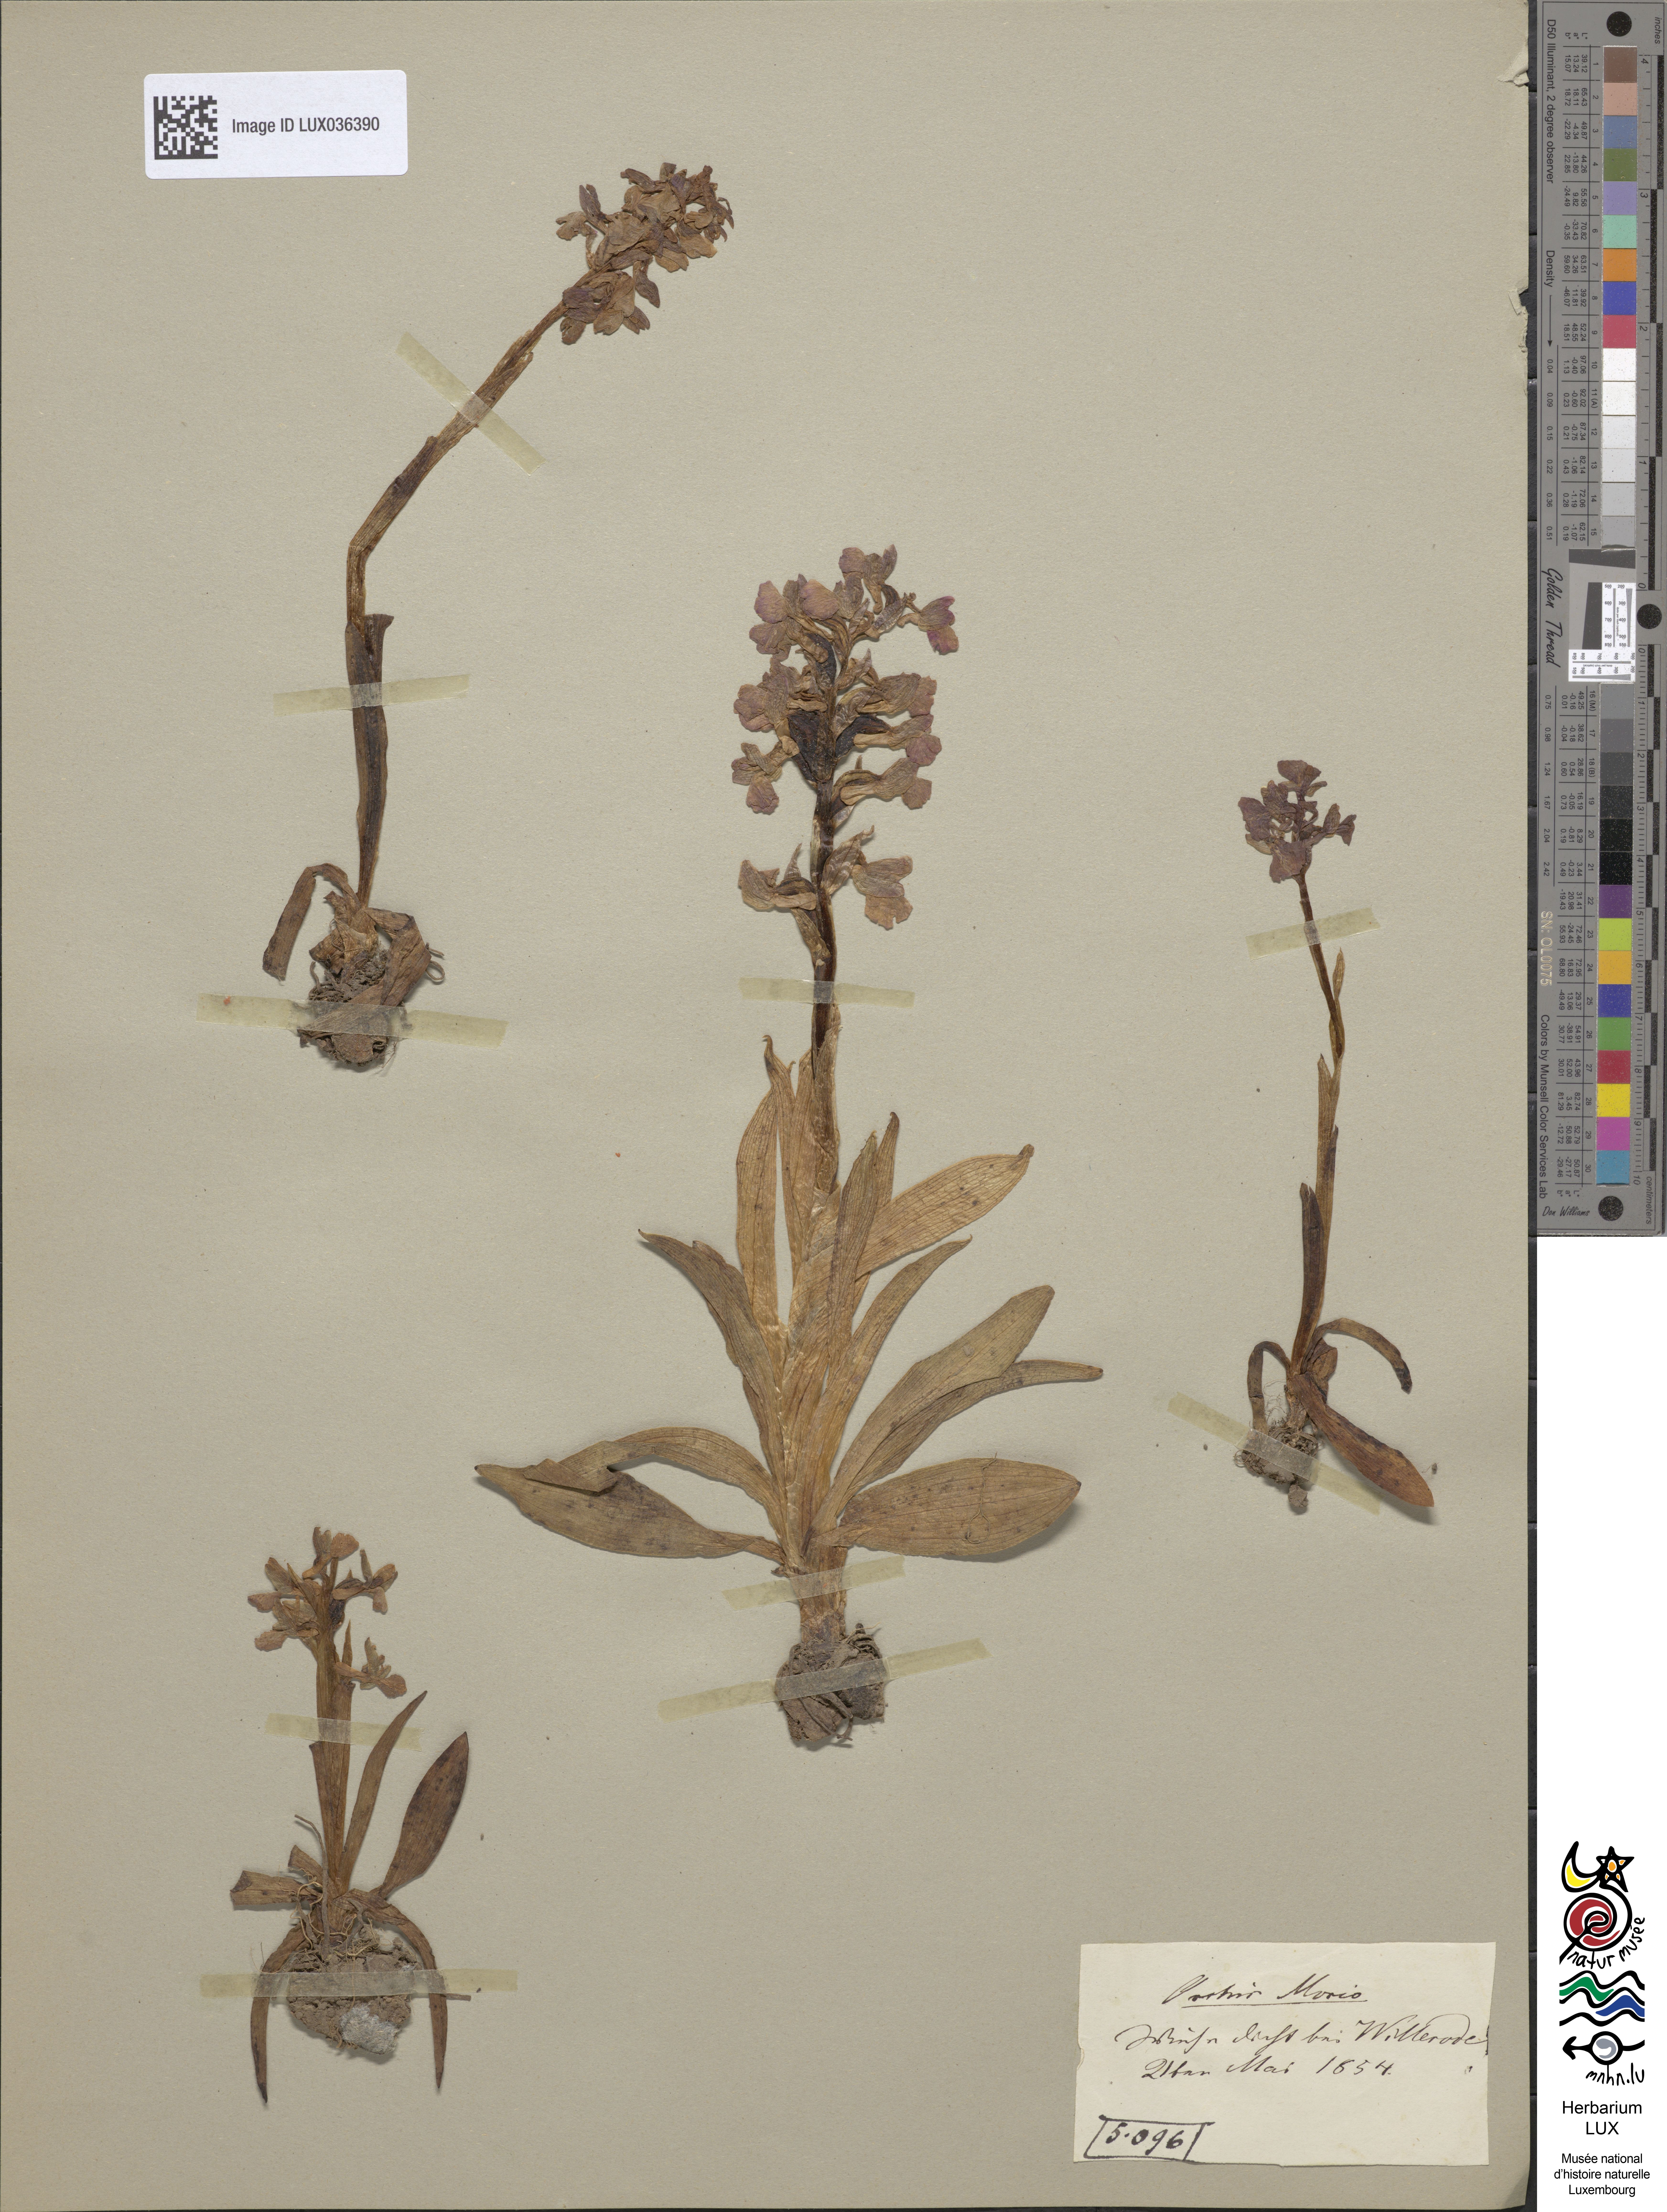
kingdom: Plantae
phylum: Tracheophyta
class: Liliopsida
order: Asparagales
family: Orchidaceae
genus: Anacamptis
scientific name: Anacamptis morio
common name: Green-winged orchid
